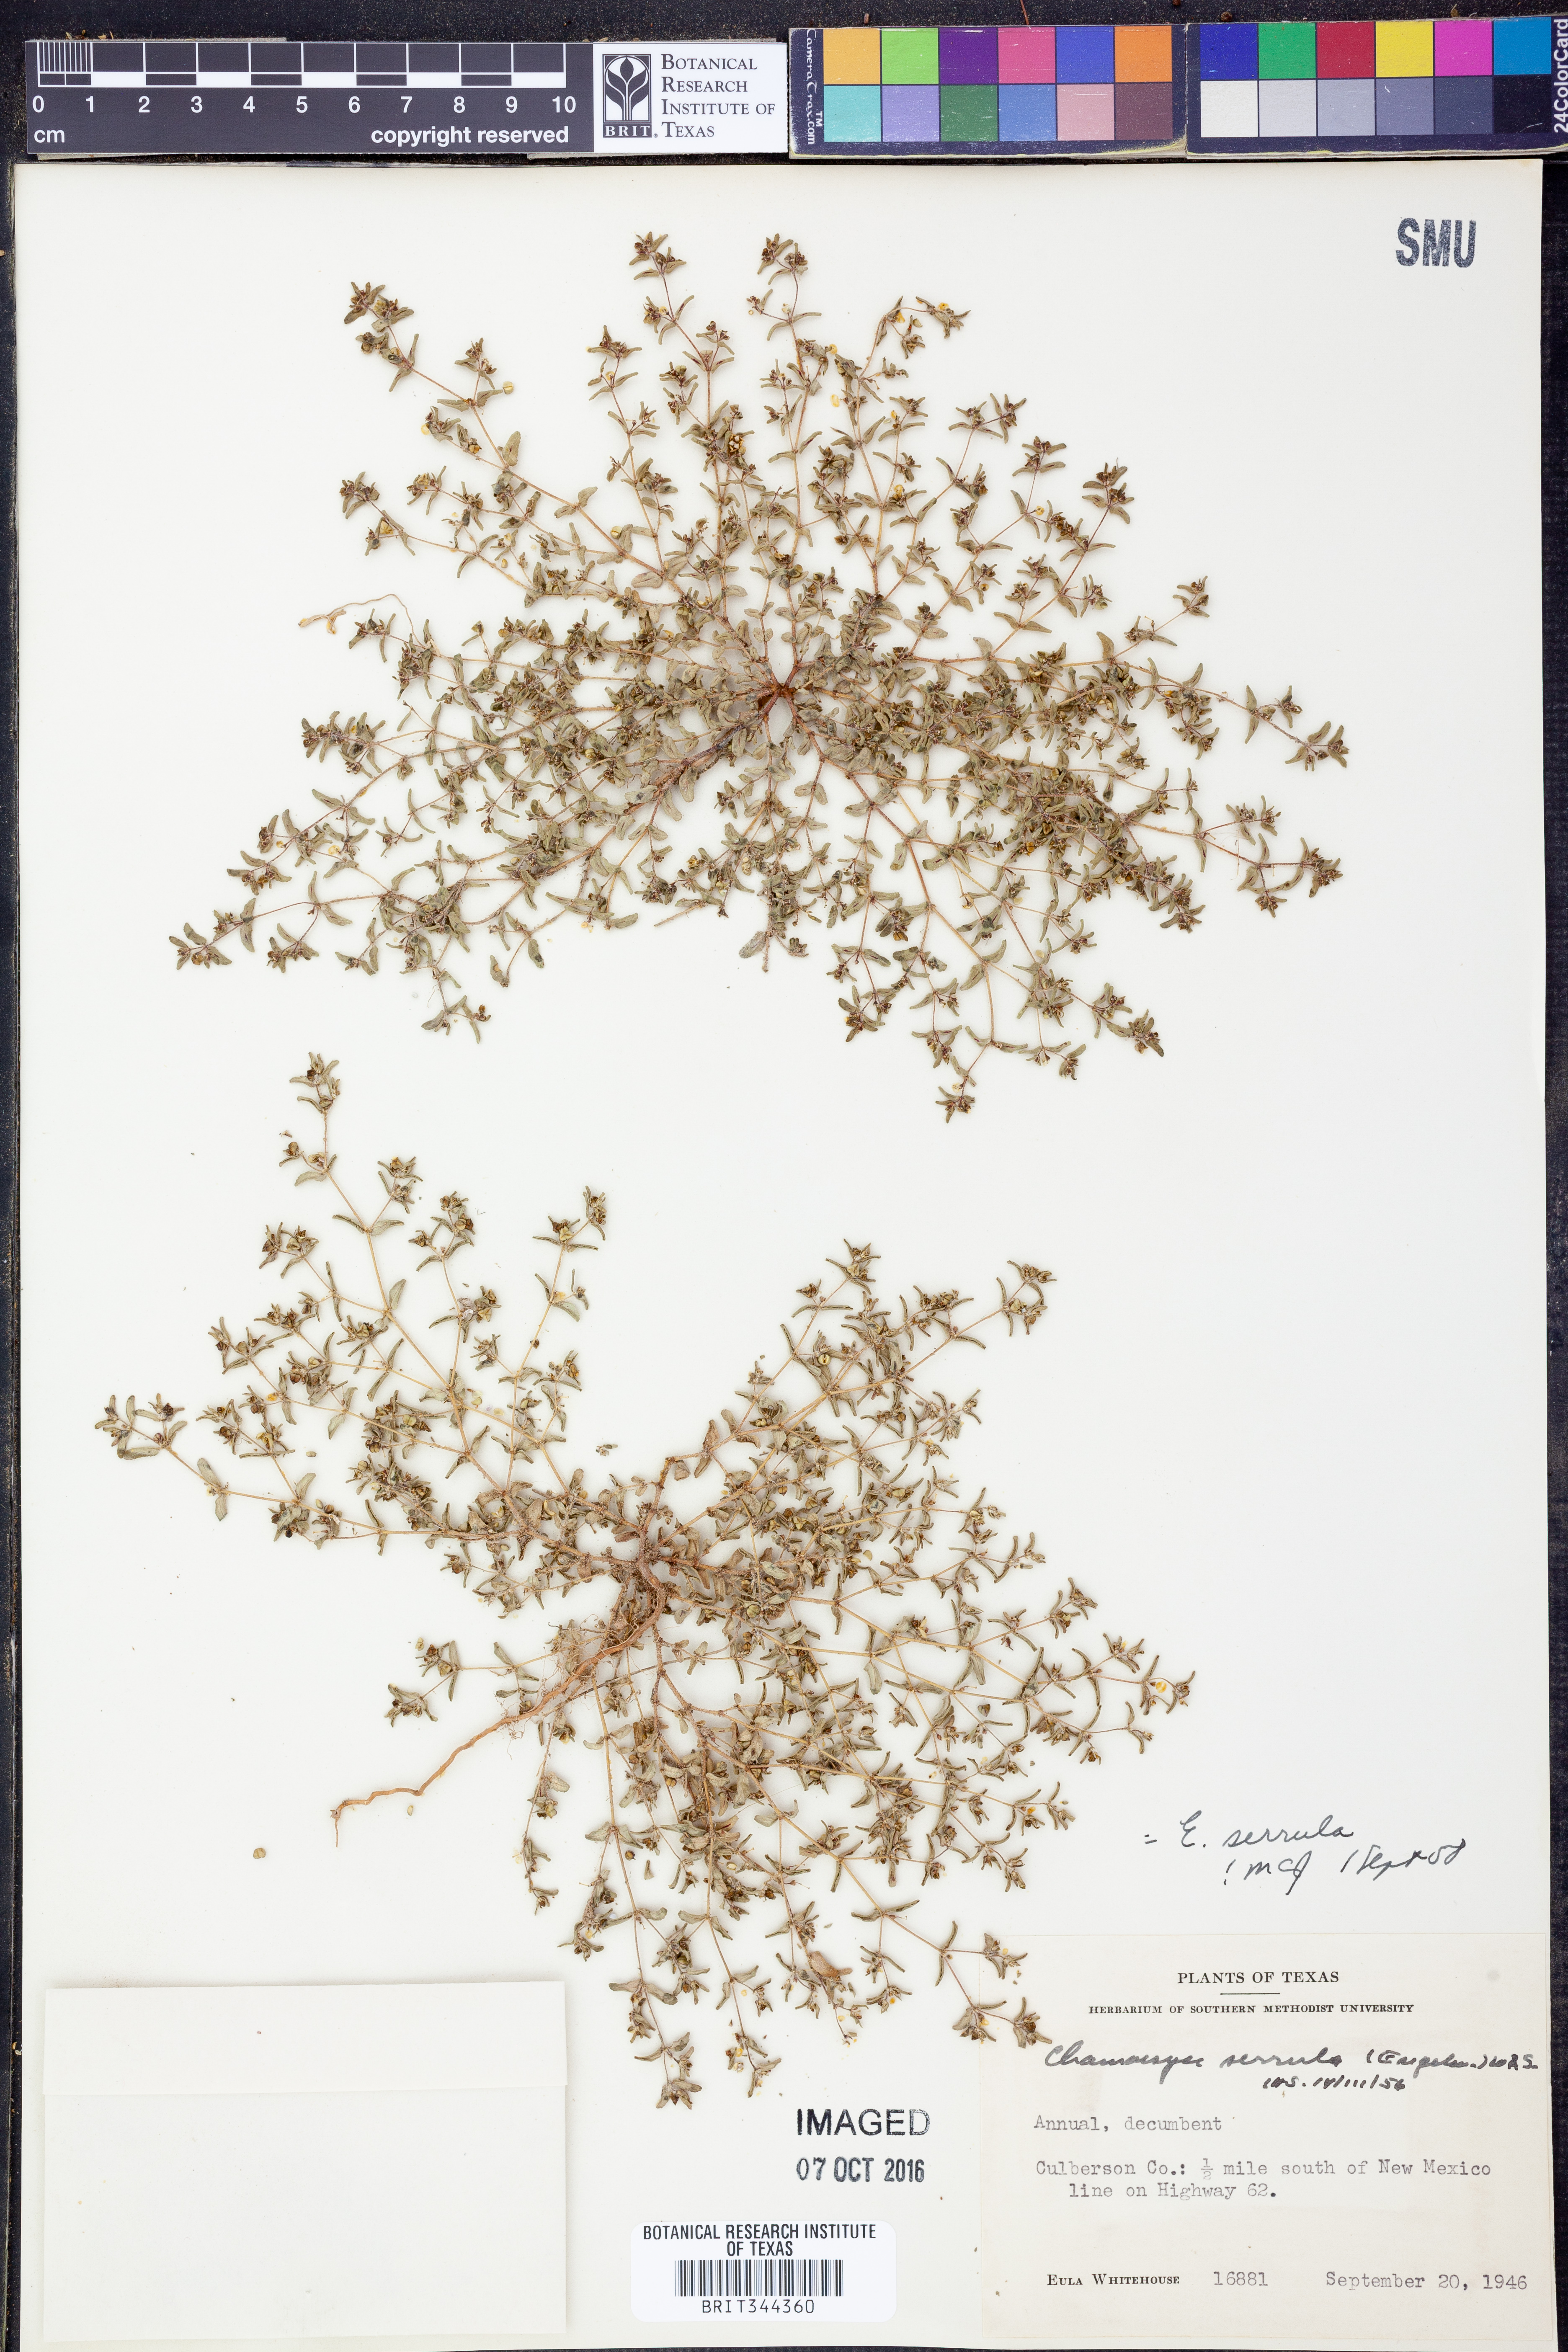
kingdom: Plantae
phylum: Tracheophyta
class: Magnoliopsida
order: Malpighiales
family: Euphorbiaceae
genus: Euphorbia
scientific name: Euphorbia serrula
